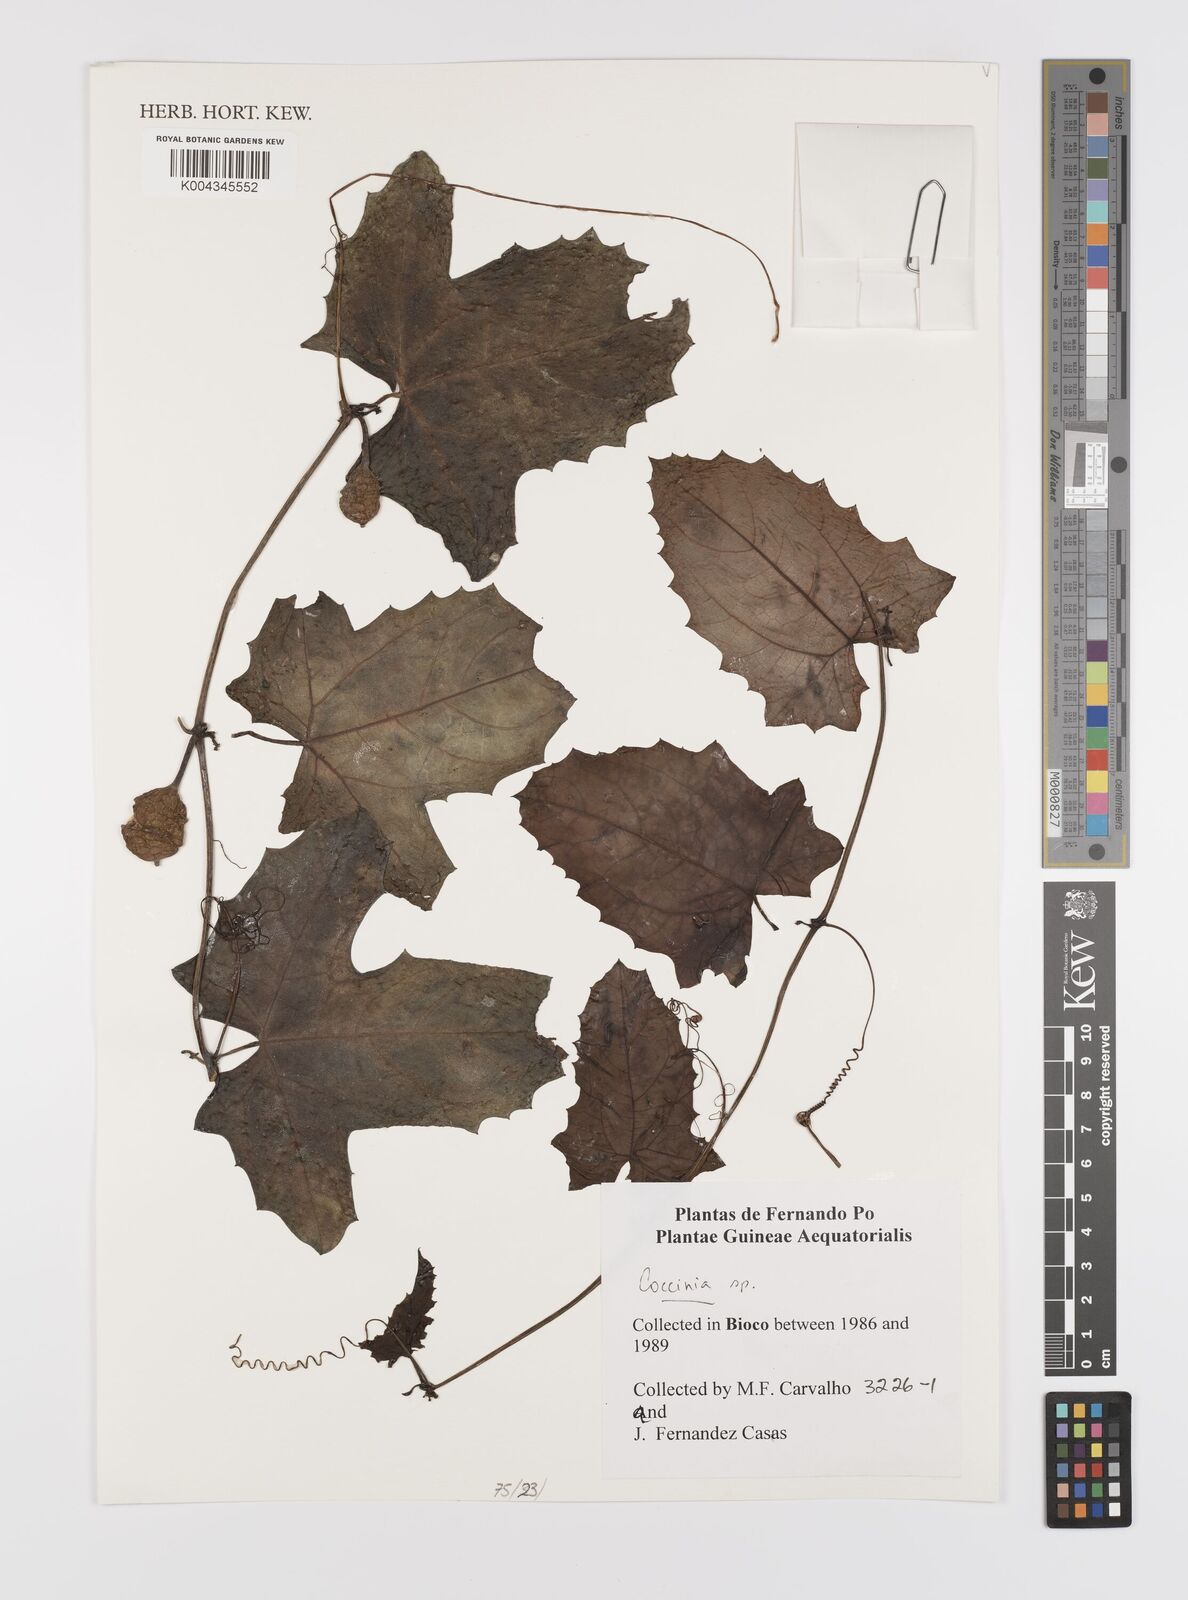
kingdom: Plantae
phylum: Tracheophyta
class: Magnoliopsida
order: Cucurbitales
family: Cucurbitaceae
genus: Coccinia
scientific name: Coccinia
